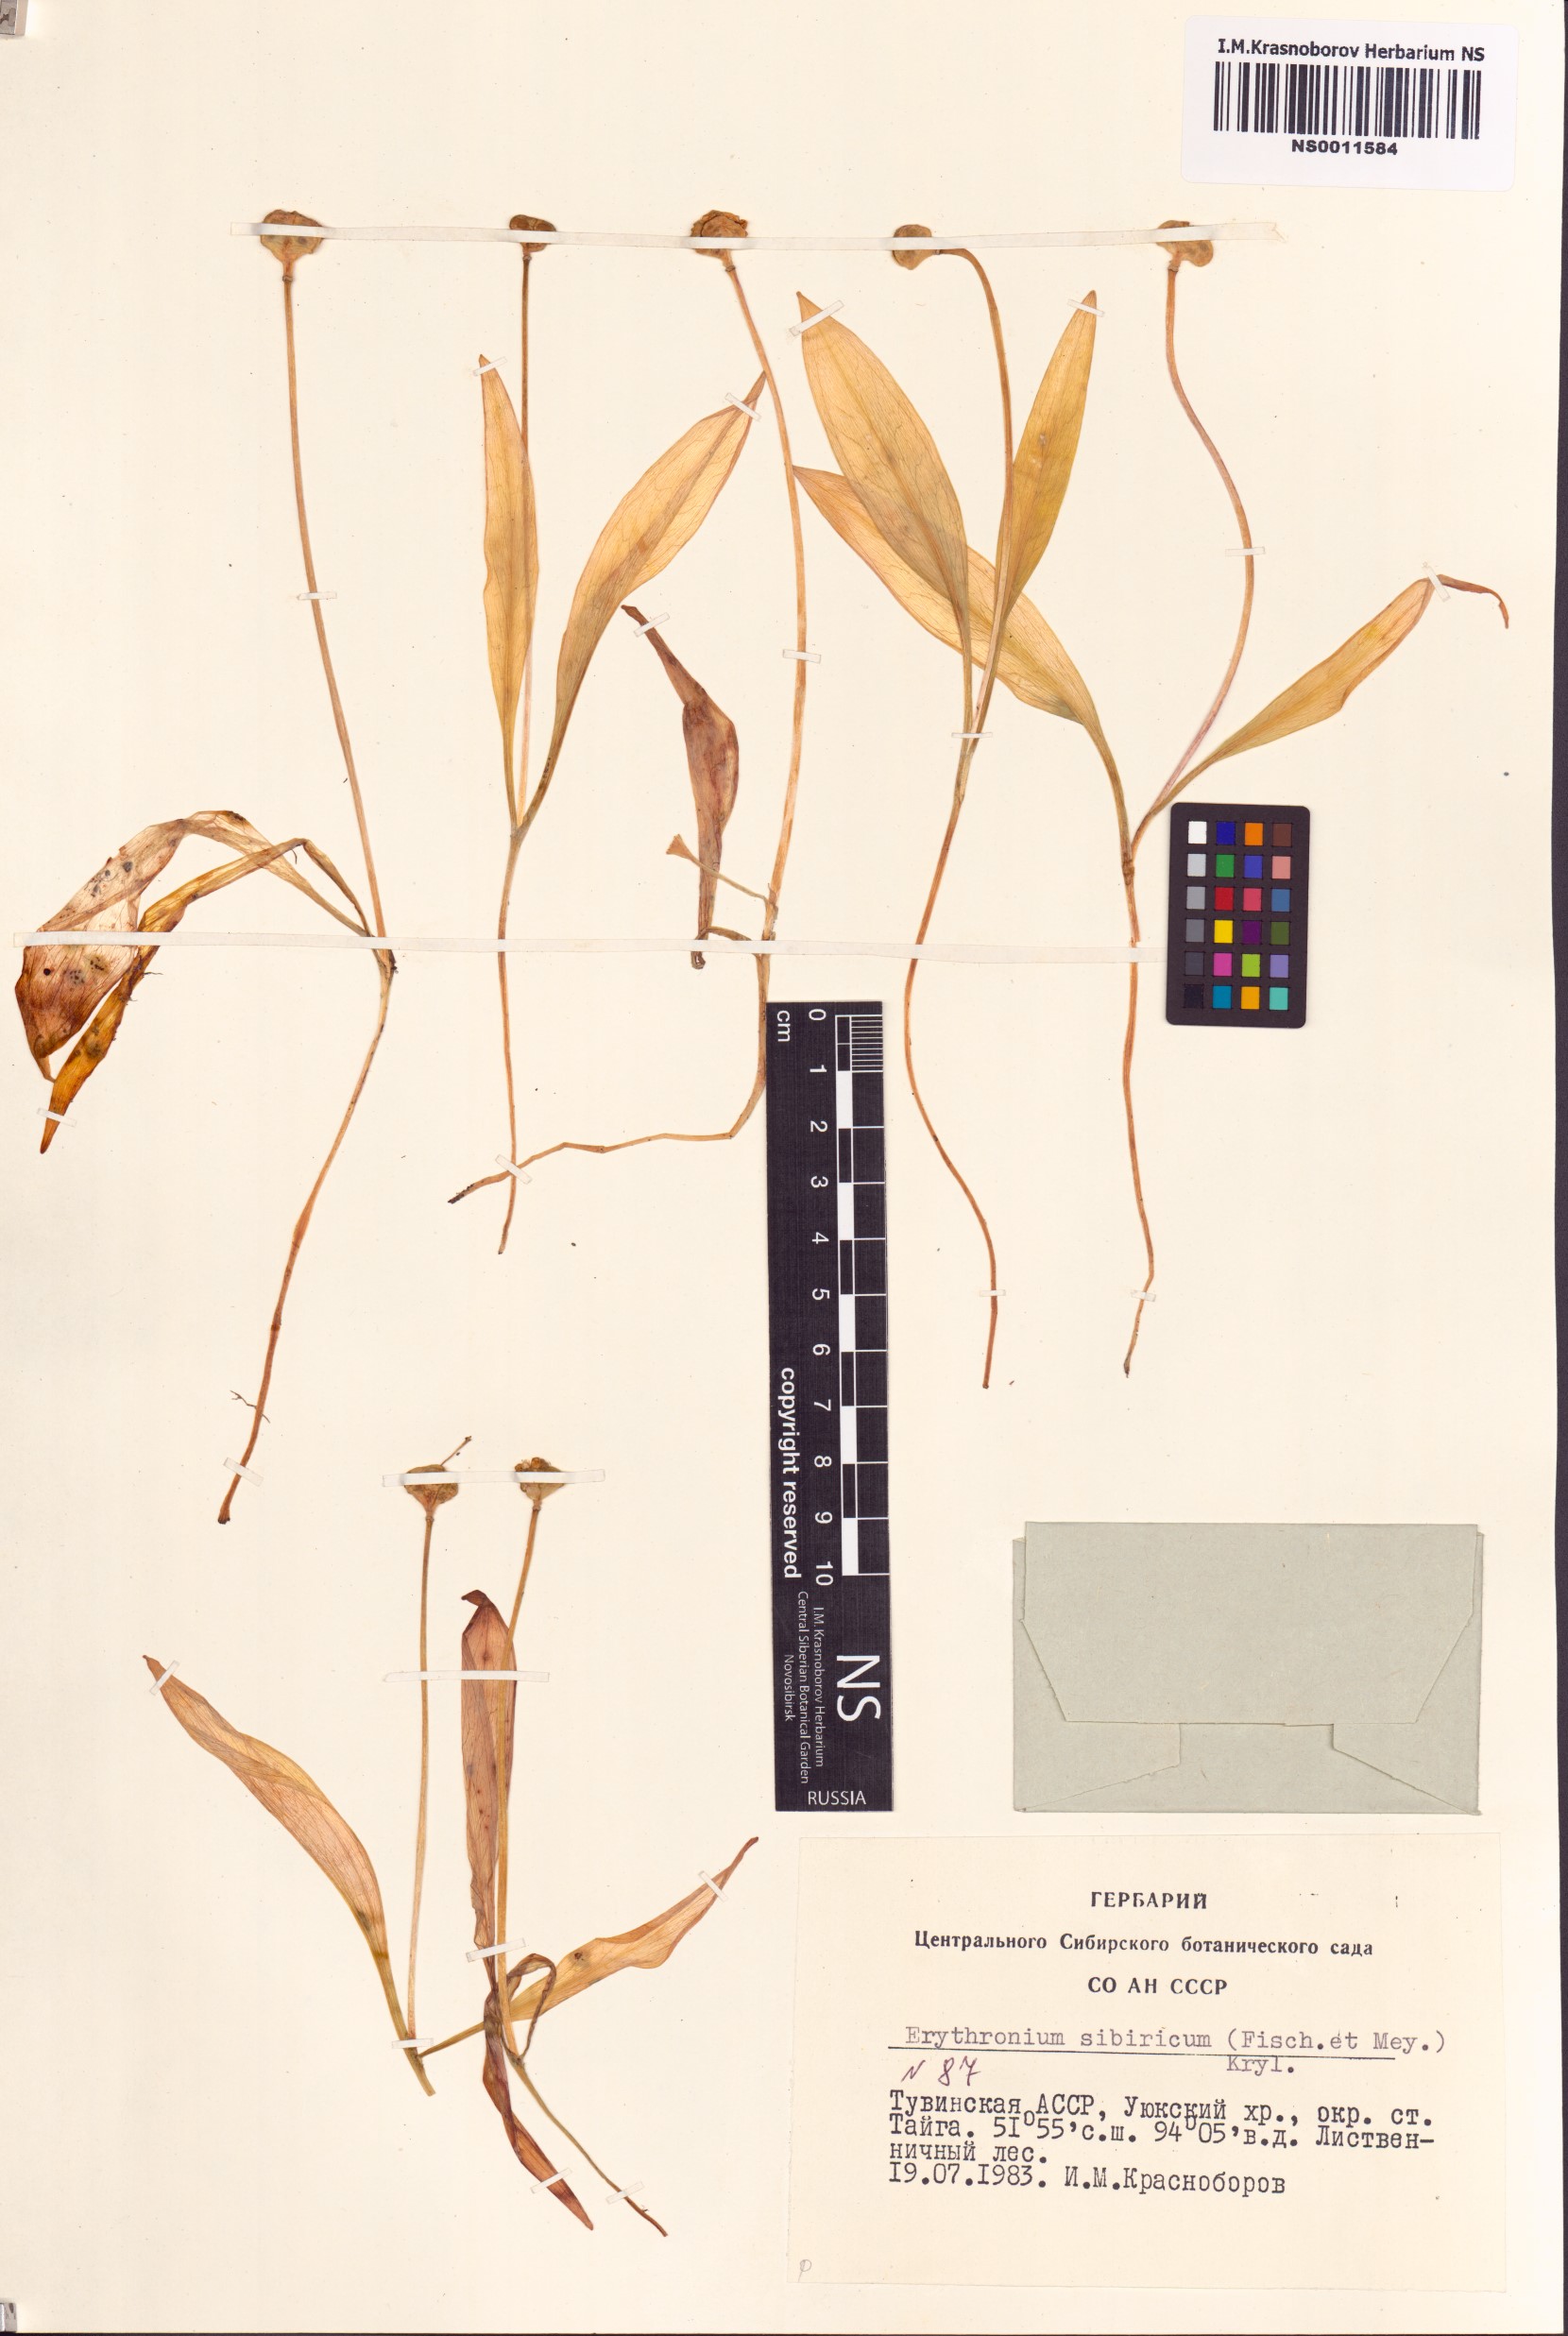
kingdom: Plantae
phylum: Tracheophyta
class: Liliopsida
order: Liliales
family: Liliaceae
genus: Erythronium
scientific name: Erythronium sibiricum
